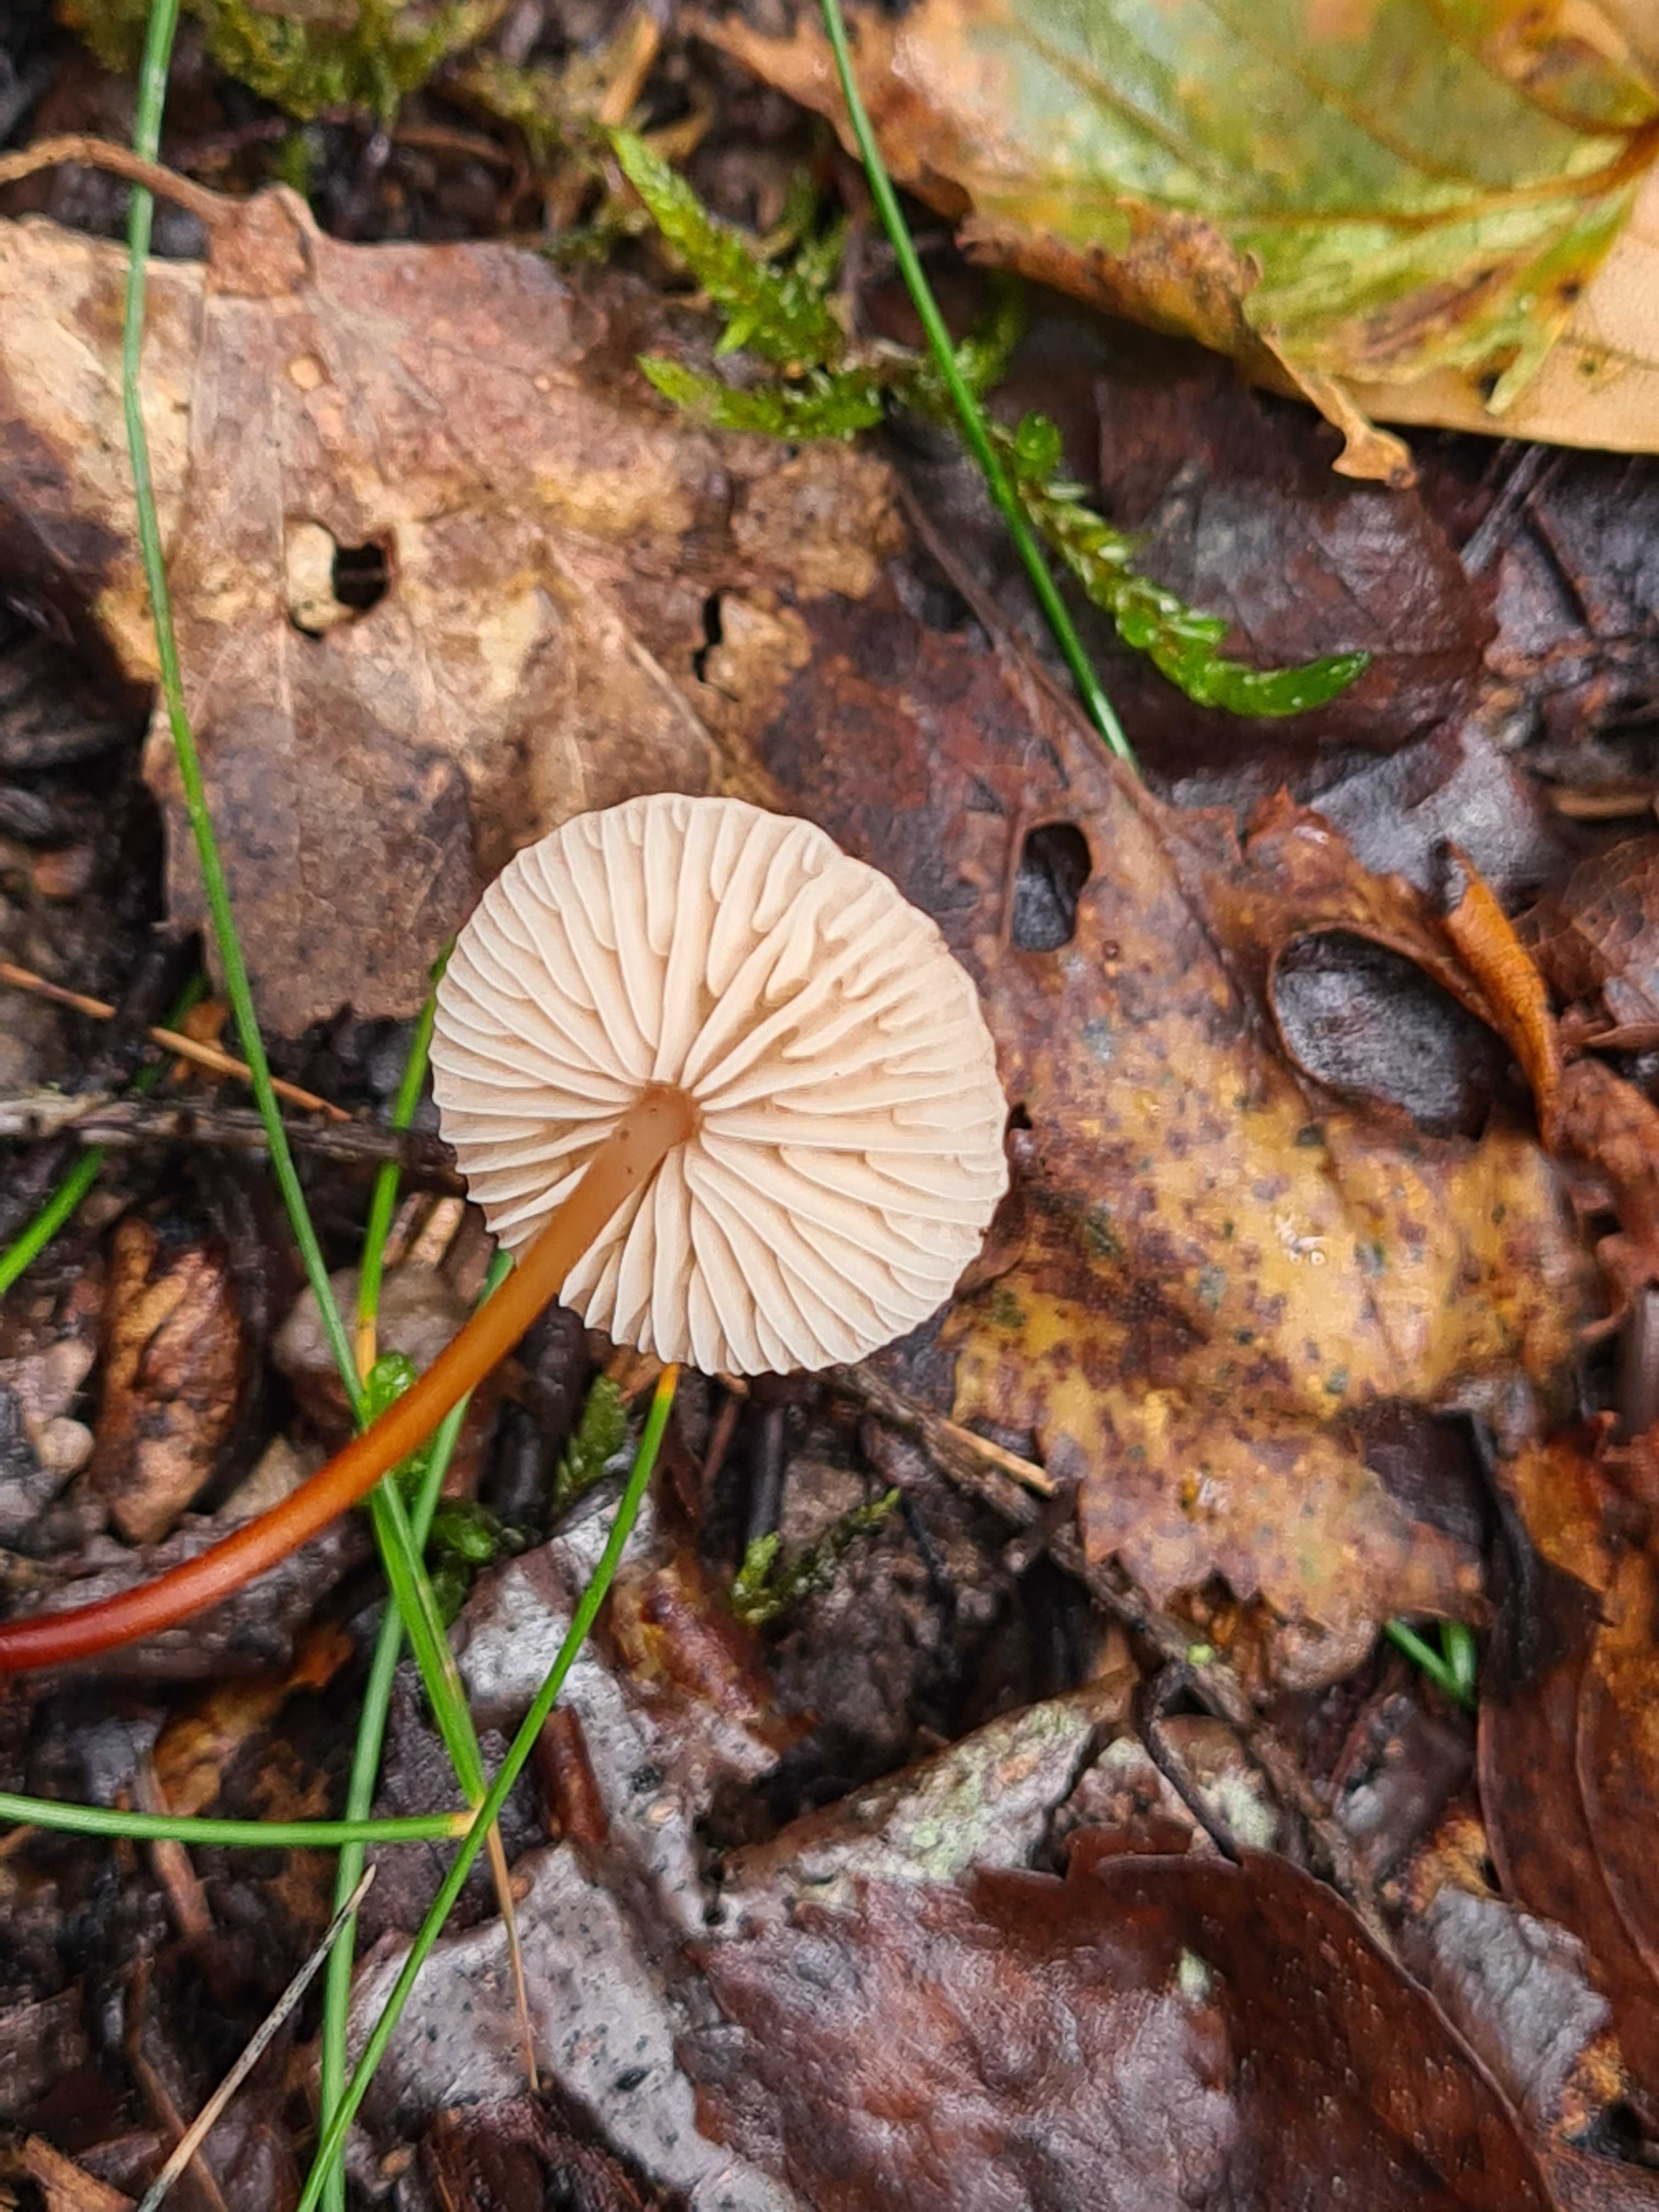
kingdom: Fungi
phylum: Basidiomycota
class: Agaricomycetes
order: Agaricales
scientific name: Agaricales
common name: champignonordenen
